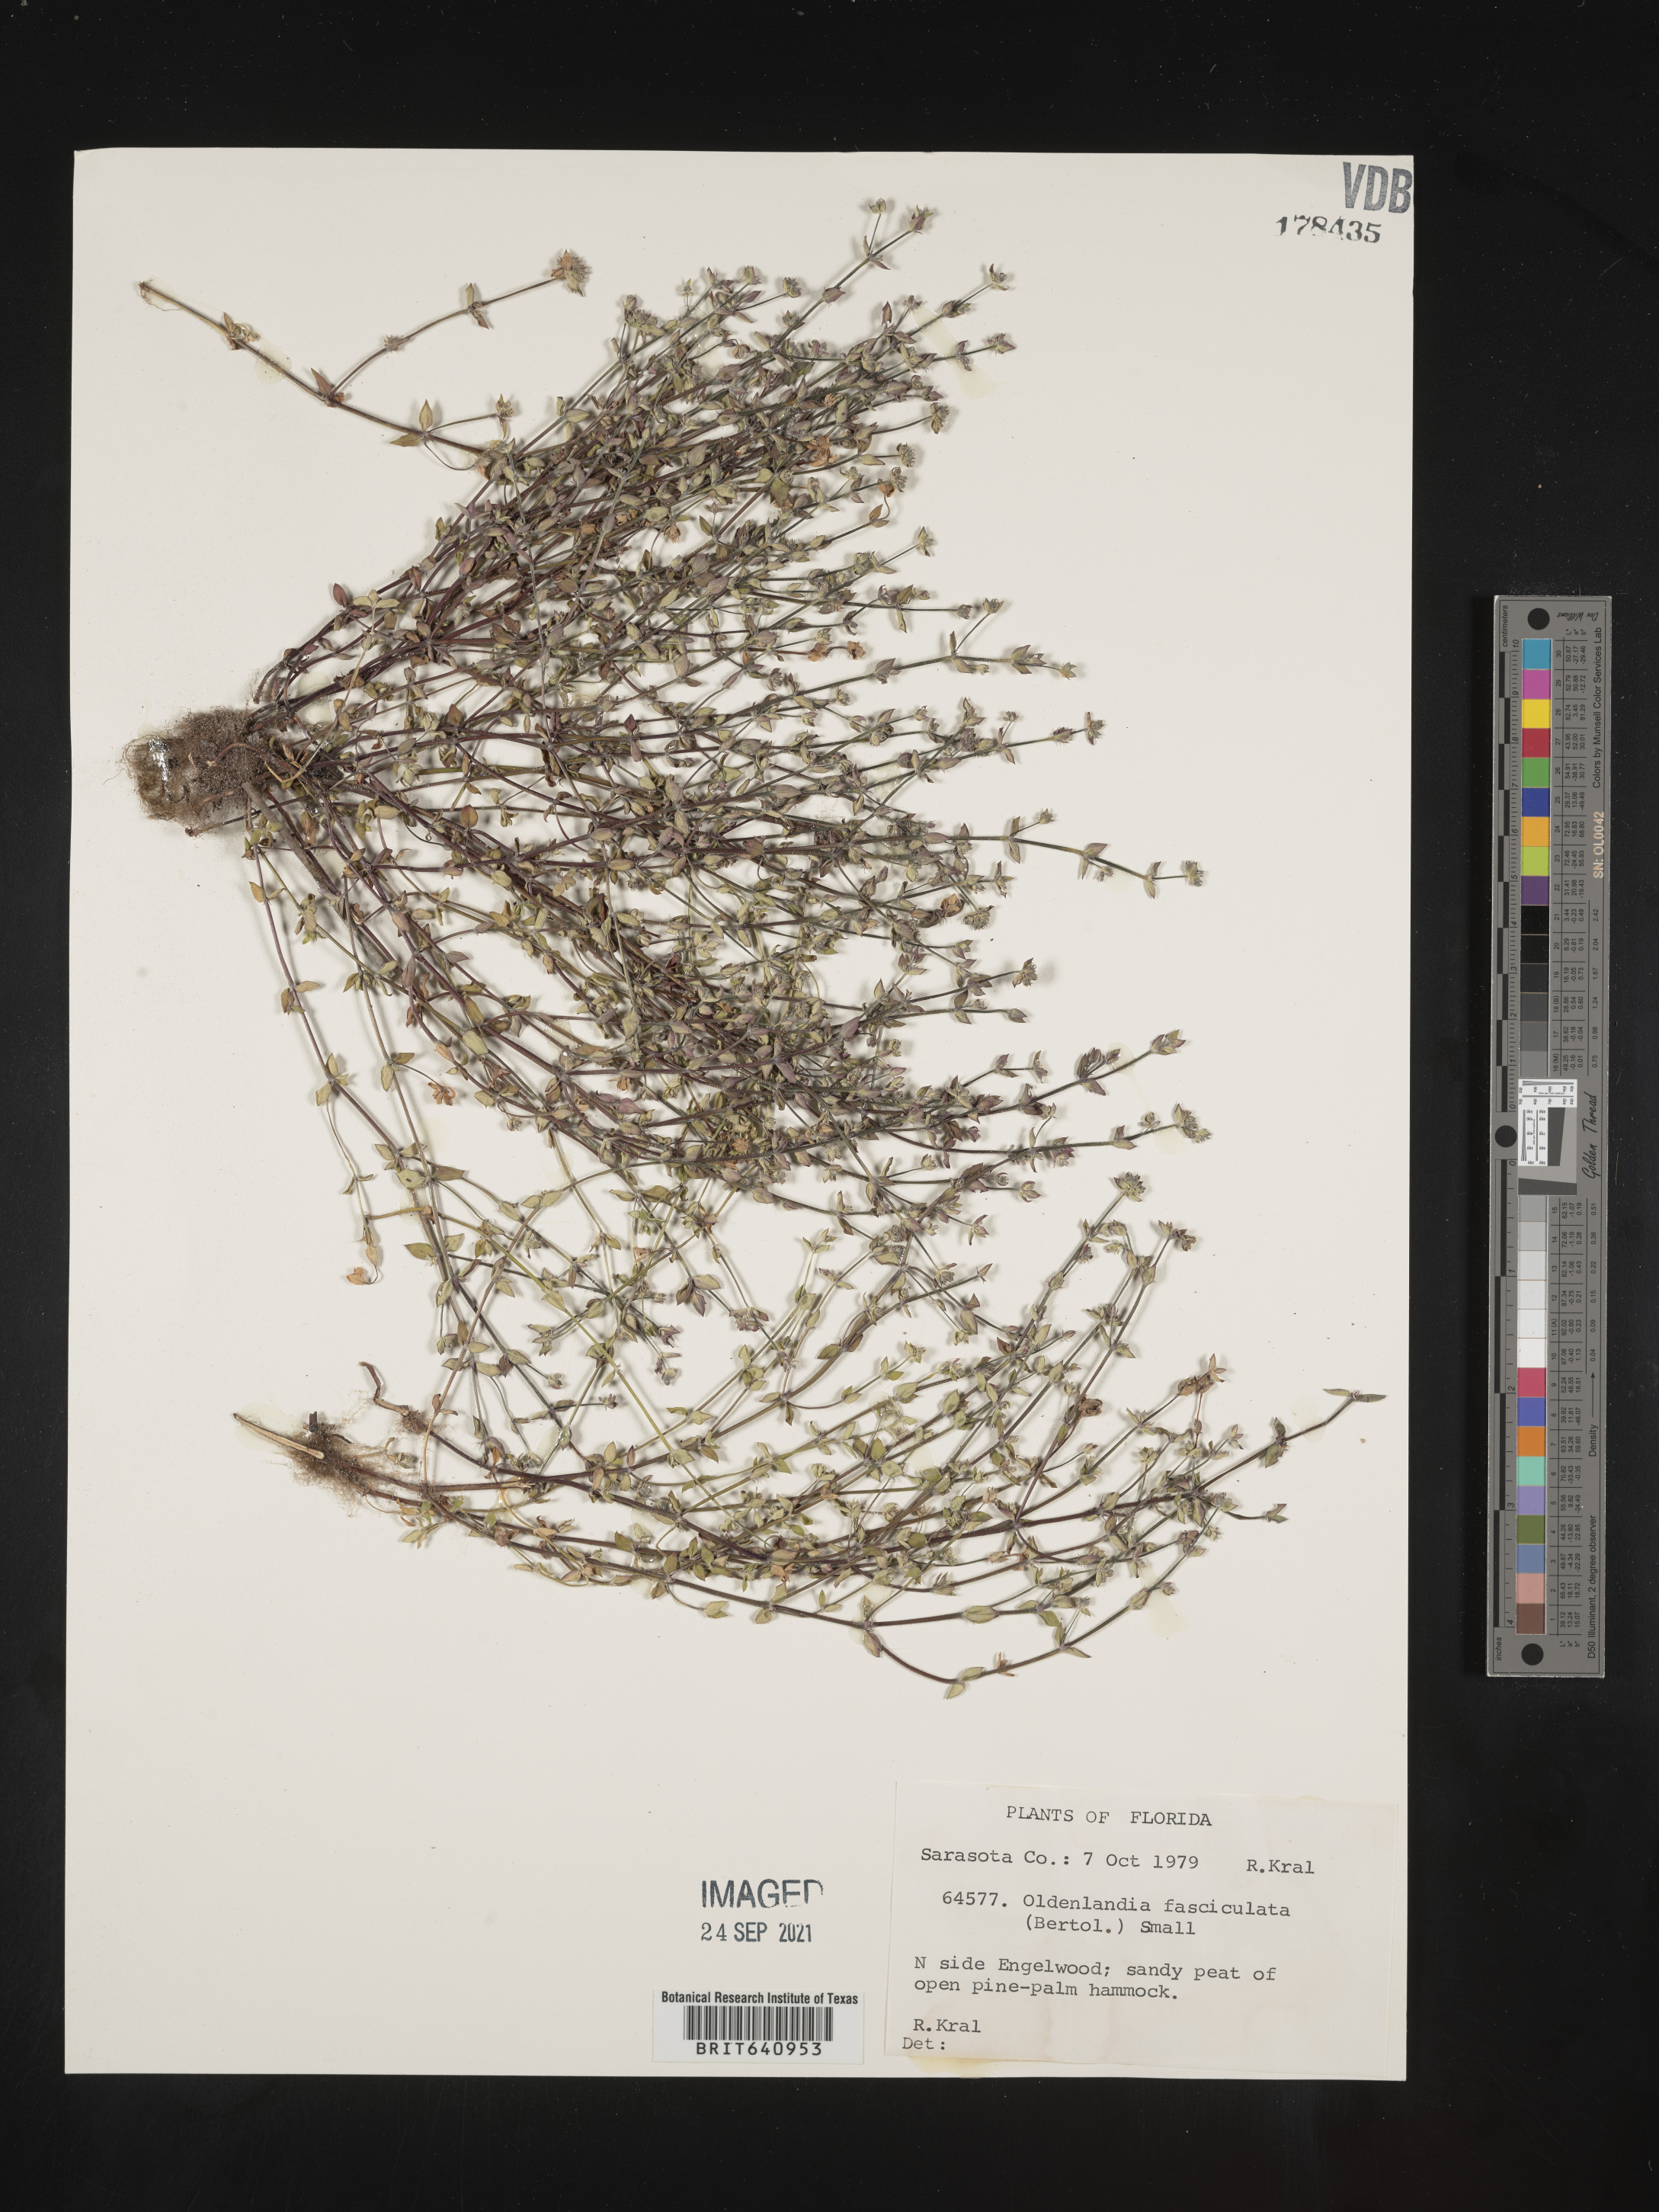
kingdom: Plantae
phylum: Tracheophyta
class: Magnoliopsida
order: Gentianales
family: Rubiaceae
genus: Edrastima
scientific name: Edrastima uniflora
